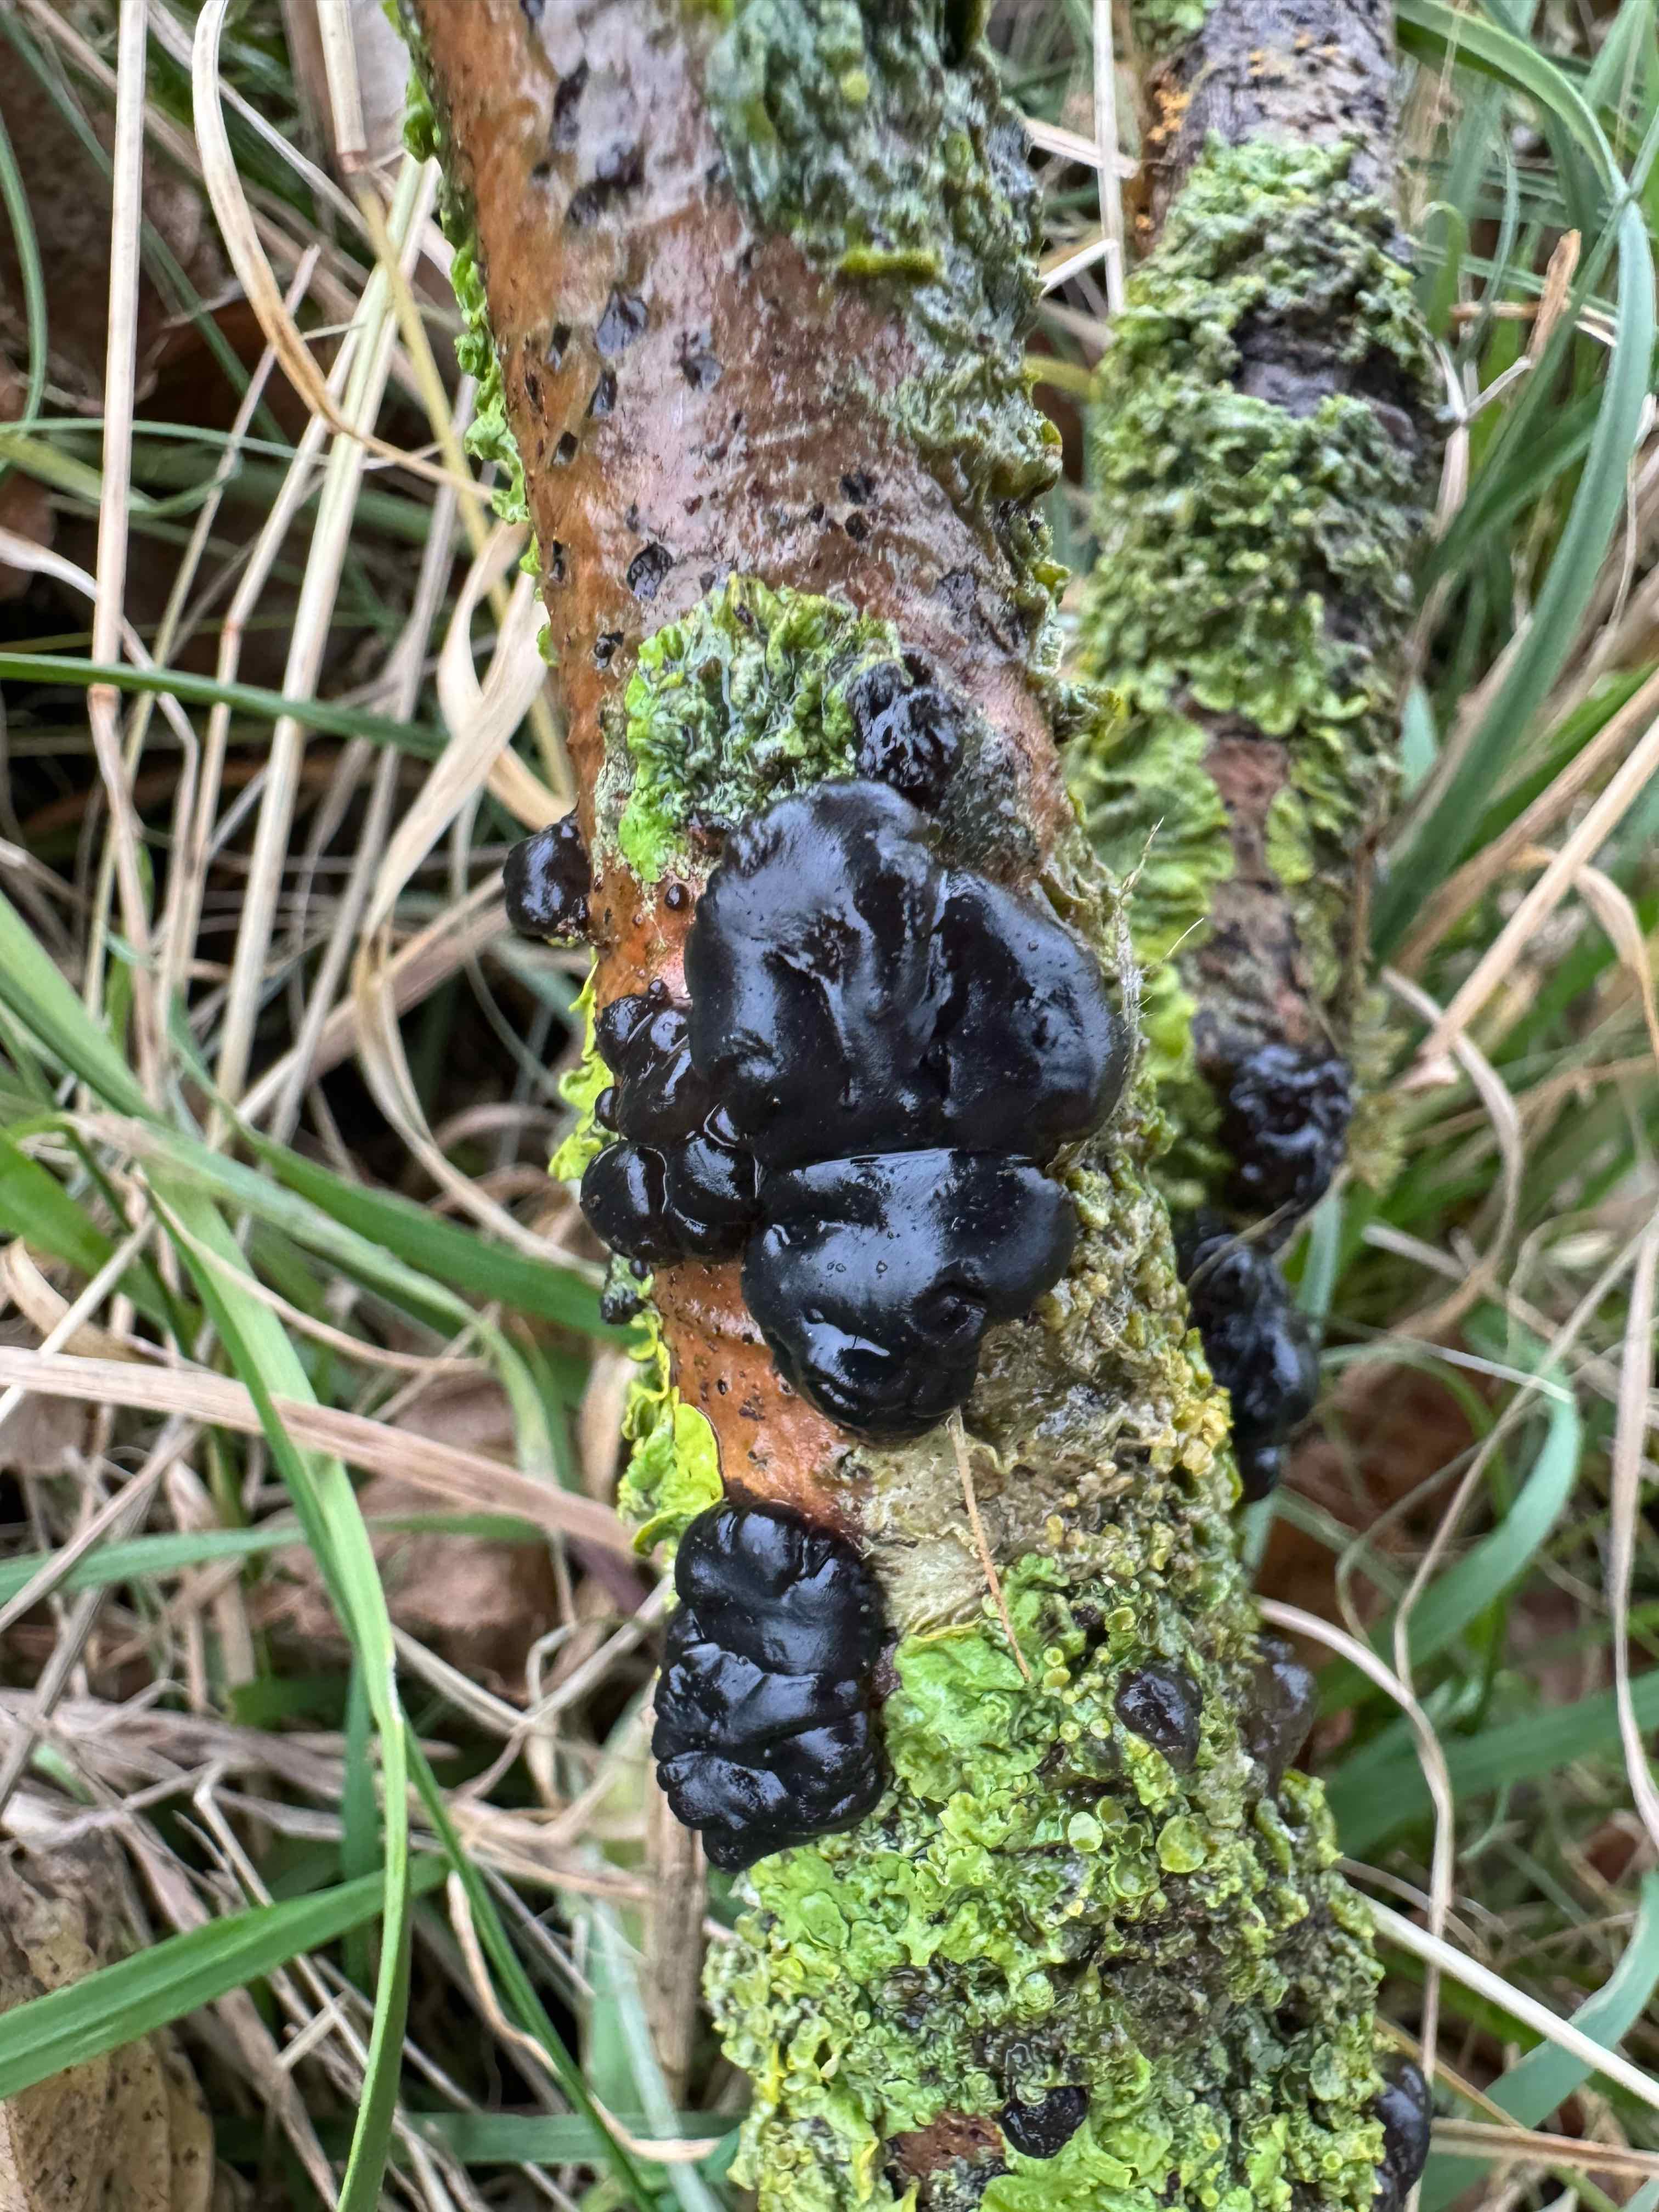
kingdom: Fungi
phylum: Basidiomycota
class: Agaricomycetes
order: Auriculariales
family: Auriculariaceae
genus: Exidia
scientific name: Exidia nigricans
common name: almindelig bævretop
